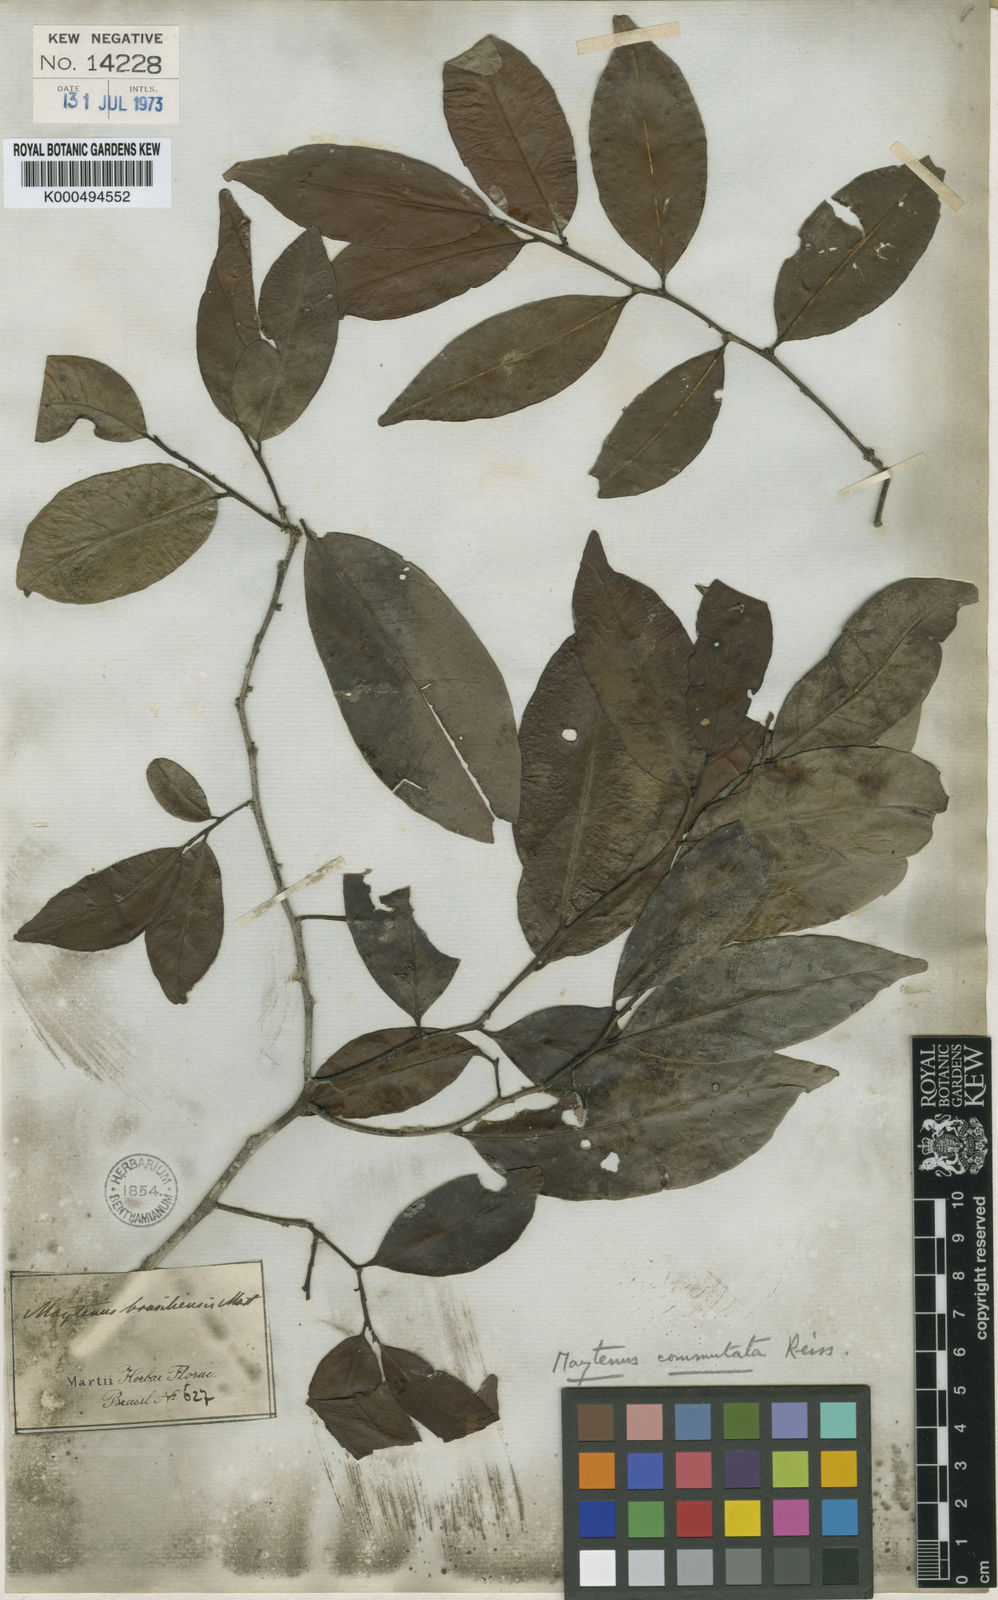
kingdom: Plantae
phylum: Tracheophyta
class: Magnoliopsida
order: Celastrales
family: Celastraceae
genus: Monteverdia
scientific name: Monteverdia brasiliensis
